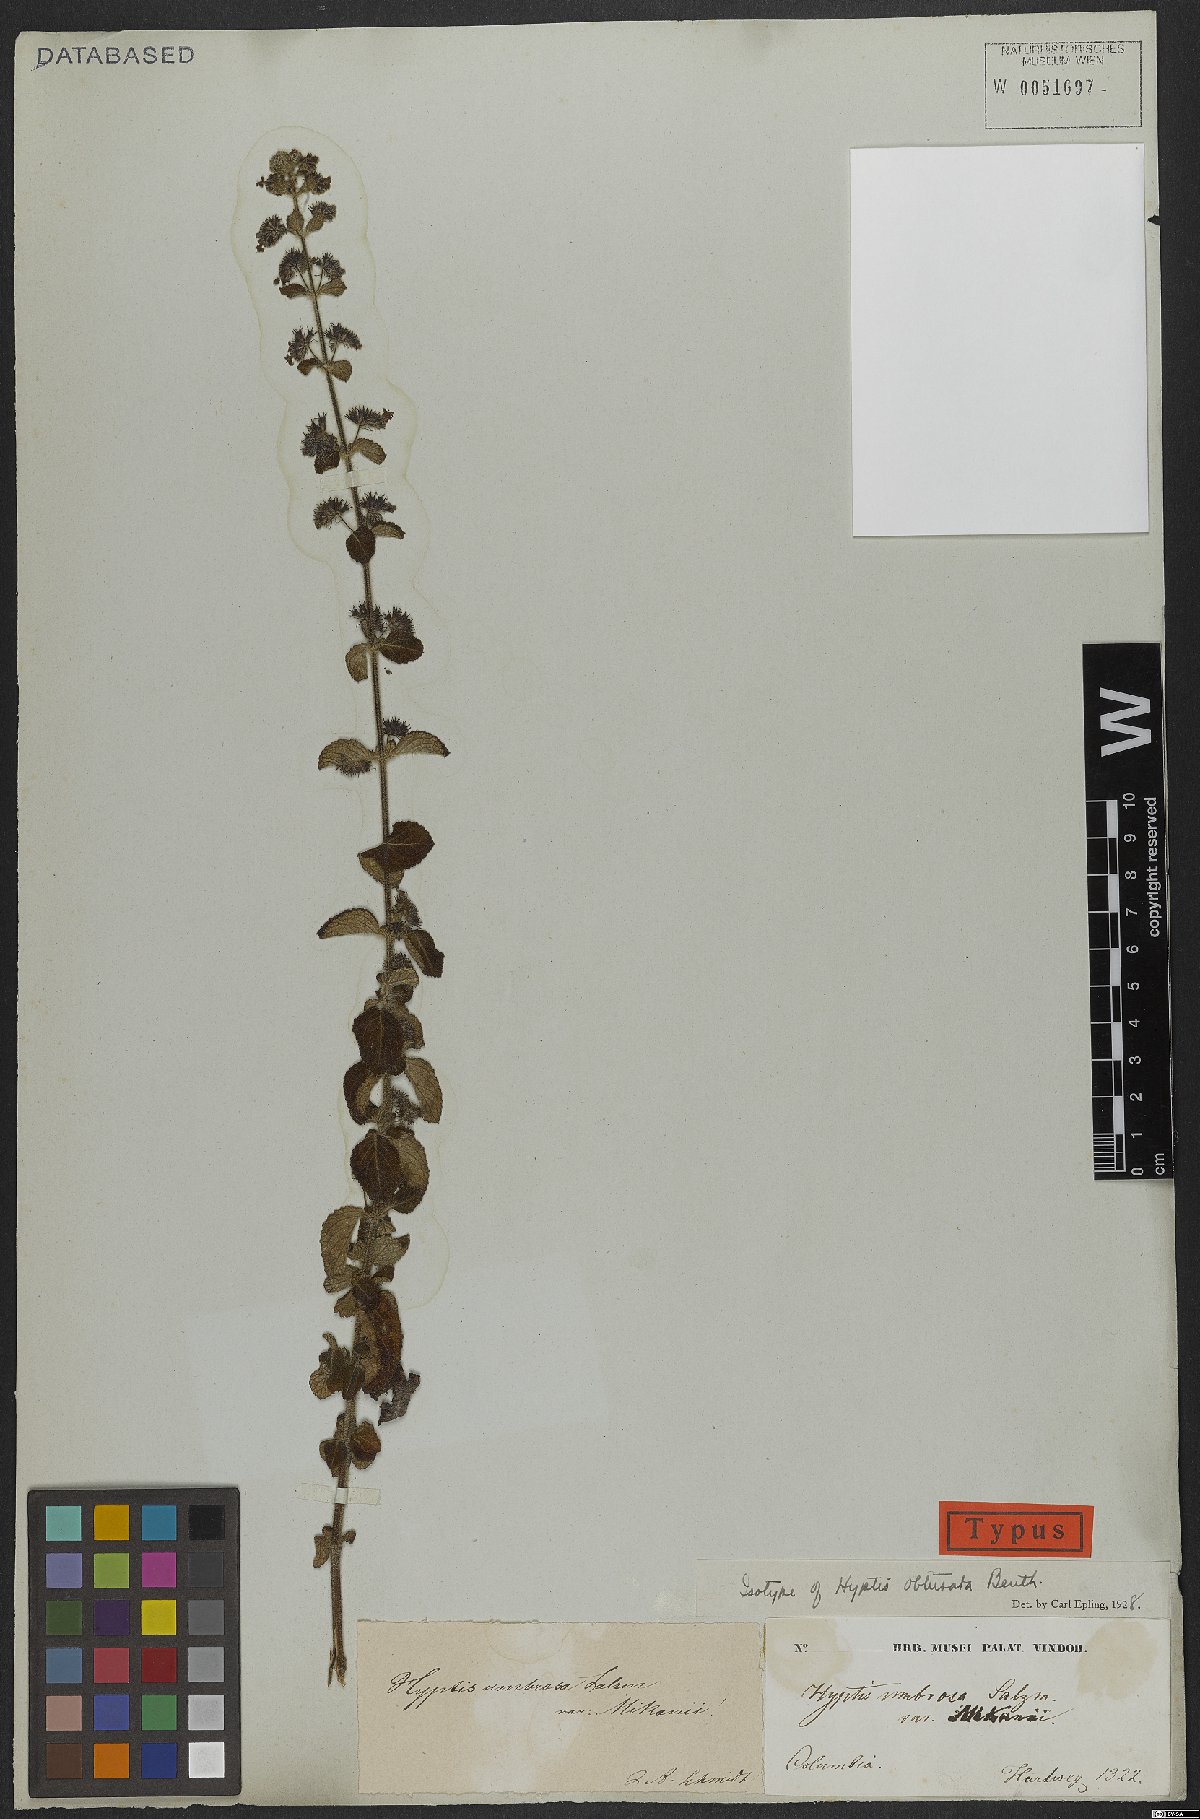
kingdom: Plantae
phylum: Tracheophyta
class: Magnoliopsida
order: Lamiales
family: Lamiaceae
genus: Mesosphaerum
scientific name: Mesosphaerum obtusatum
